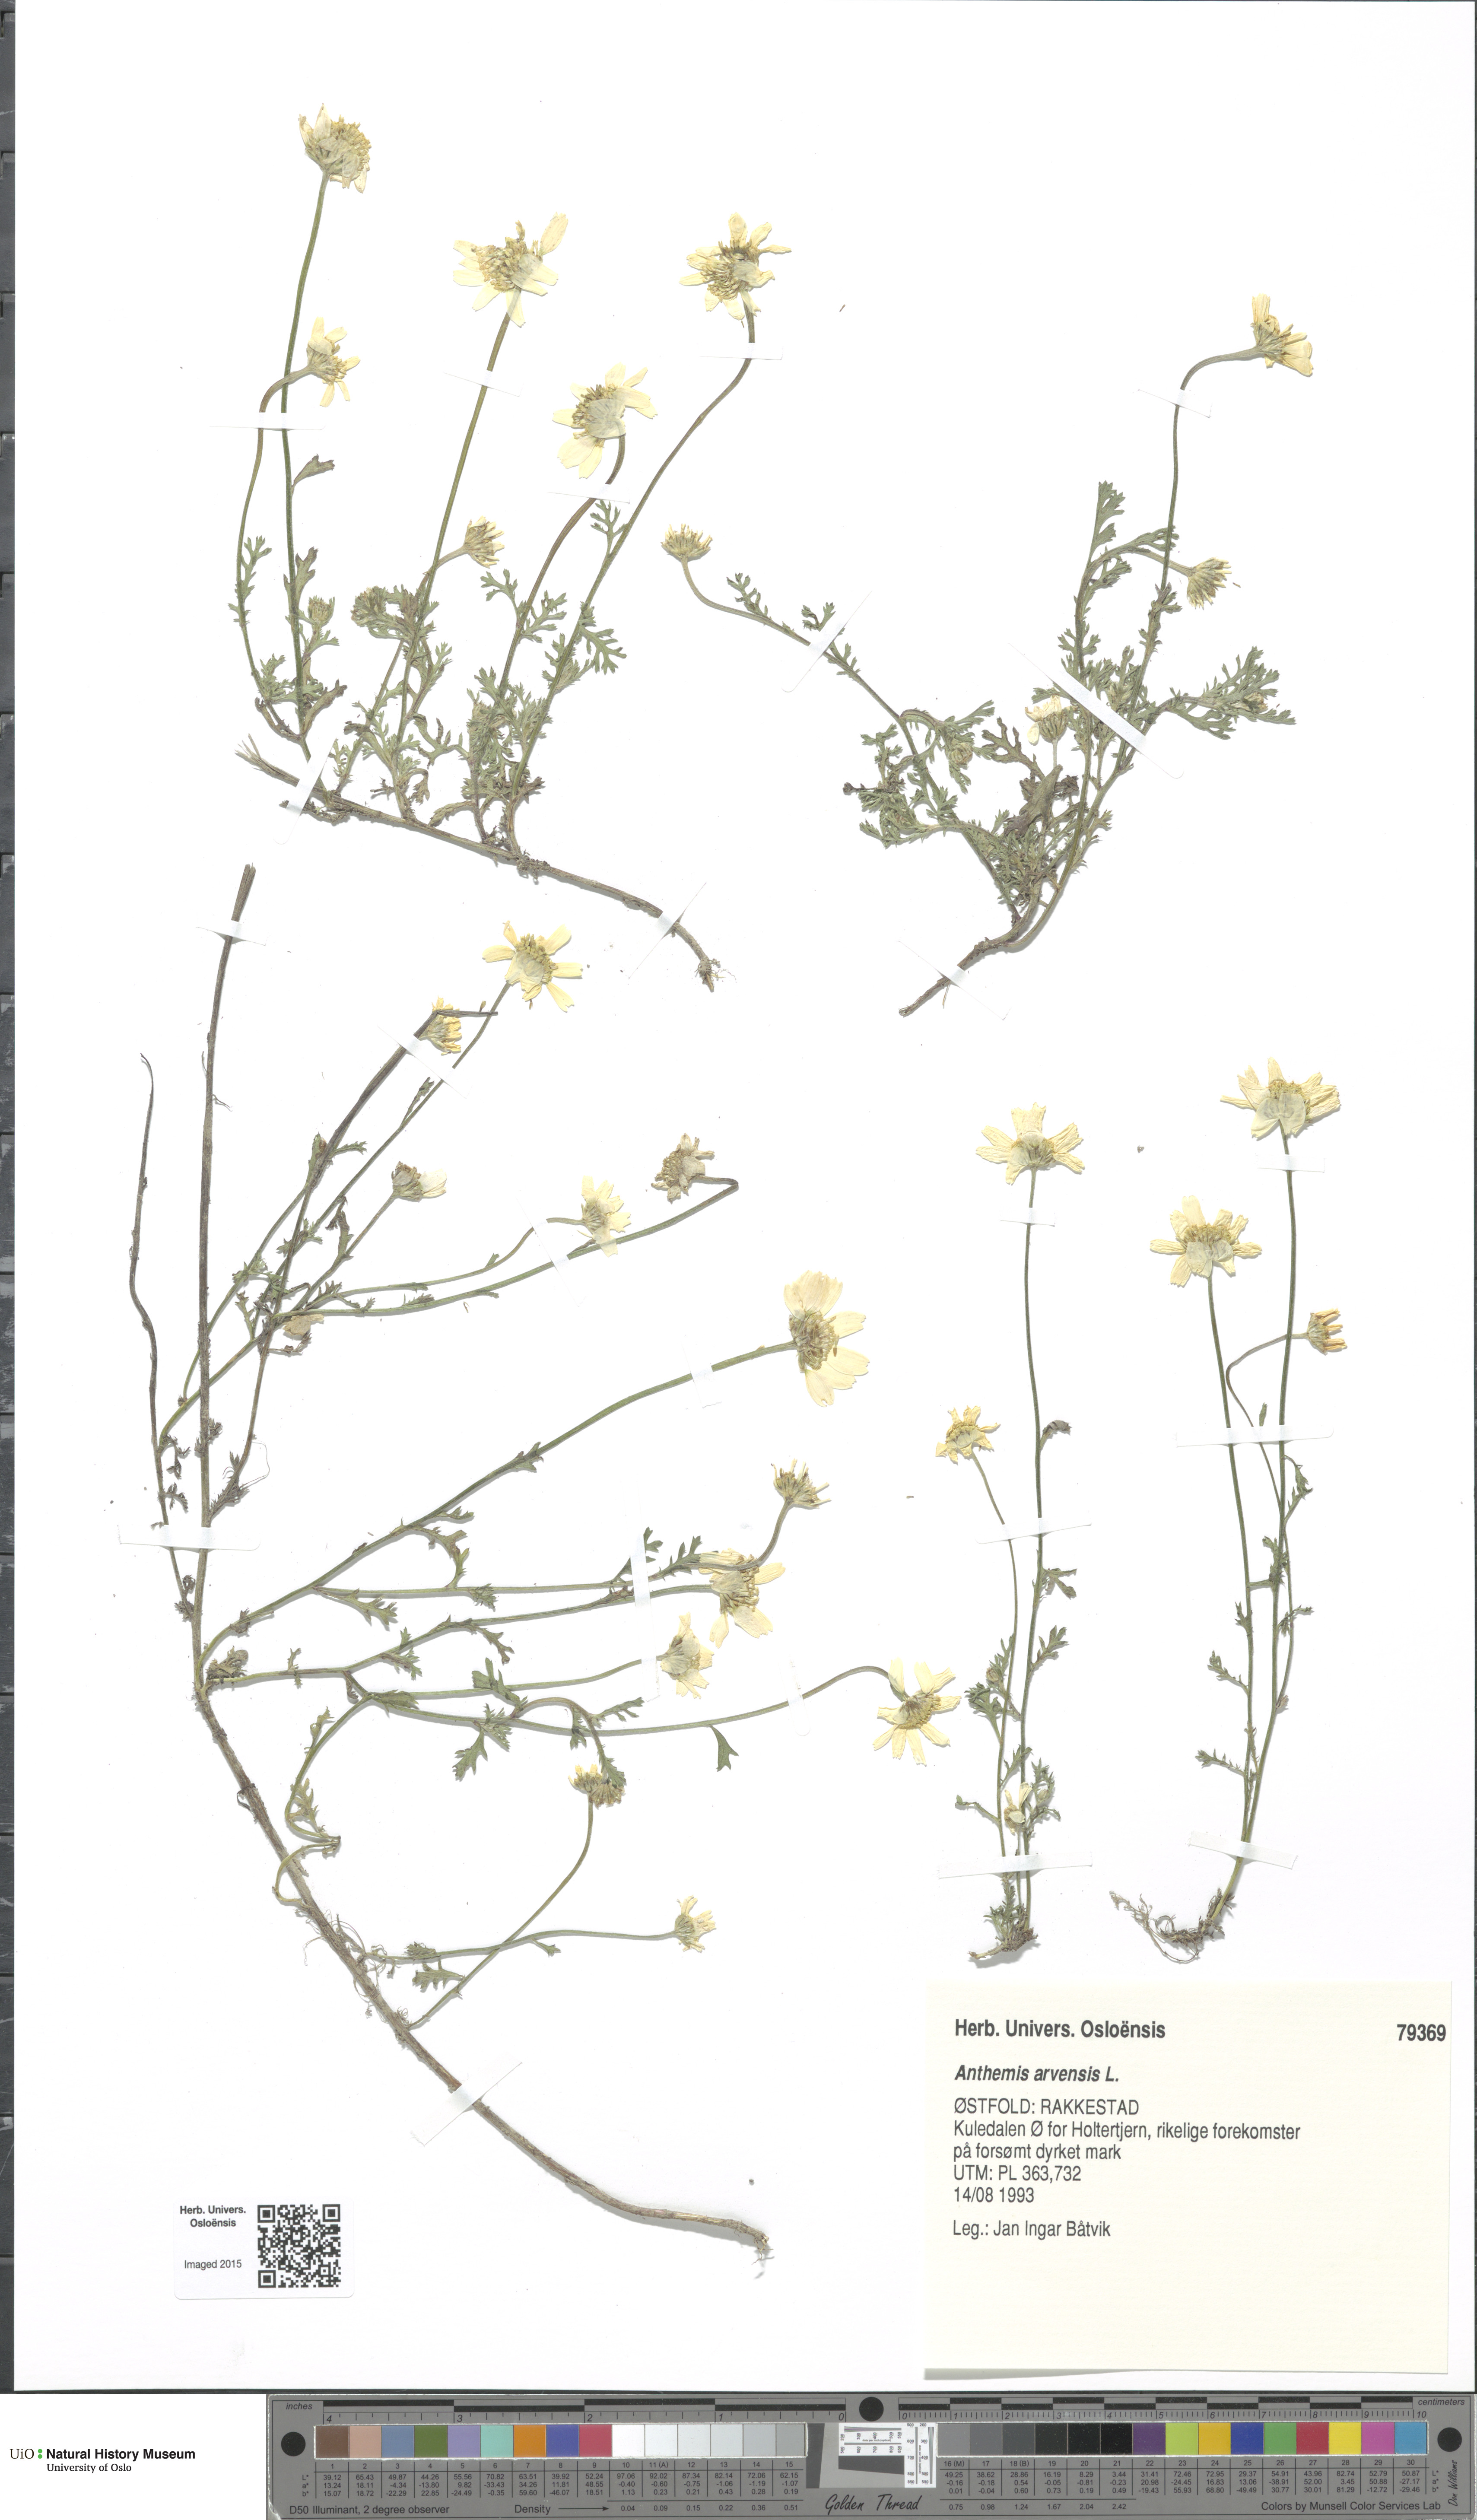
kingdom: Plantae
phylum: Tracheophyta
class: Magnoliopsida
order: Asterales
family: Asteraceae
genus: Anthemis
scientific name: Anthemis arvensis
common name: Corn chamomile
